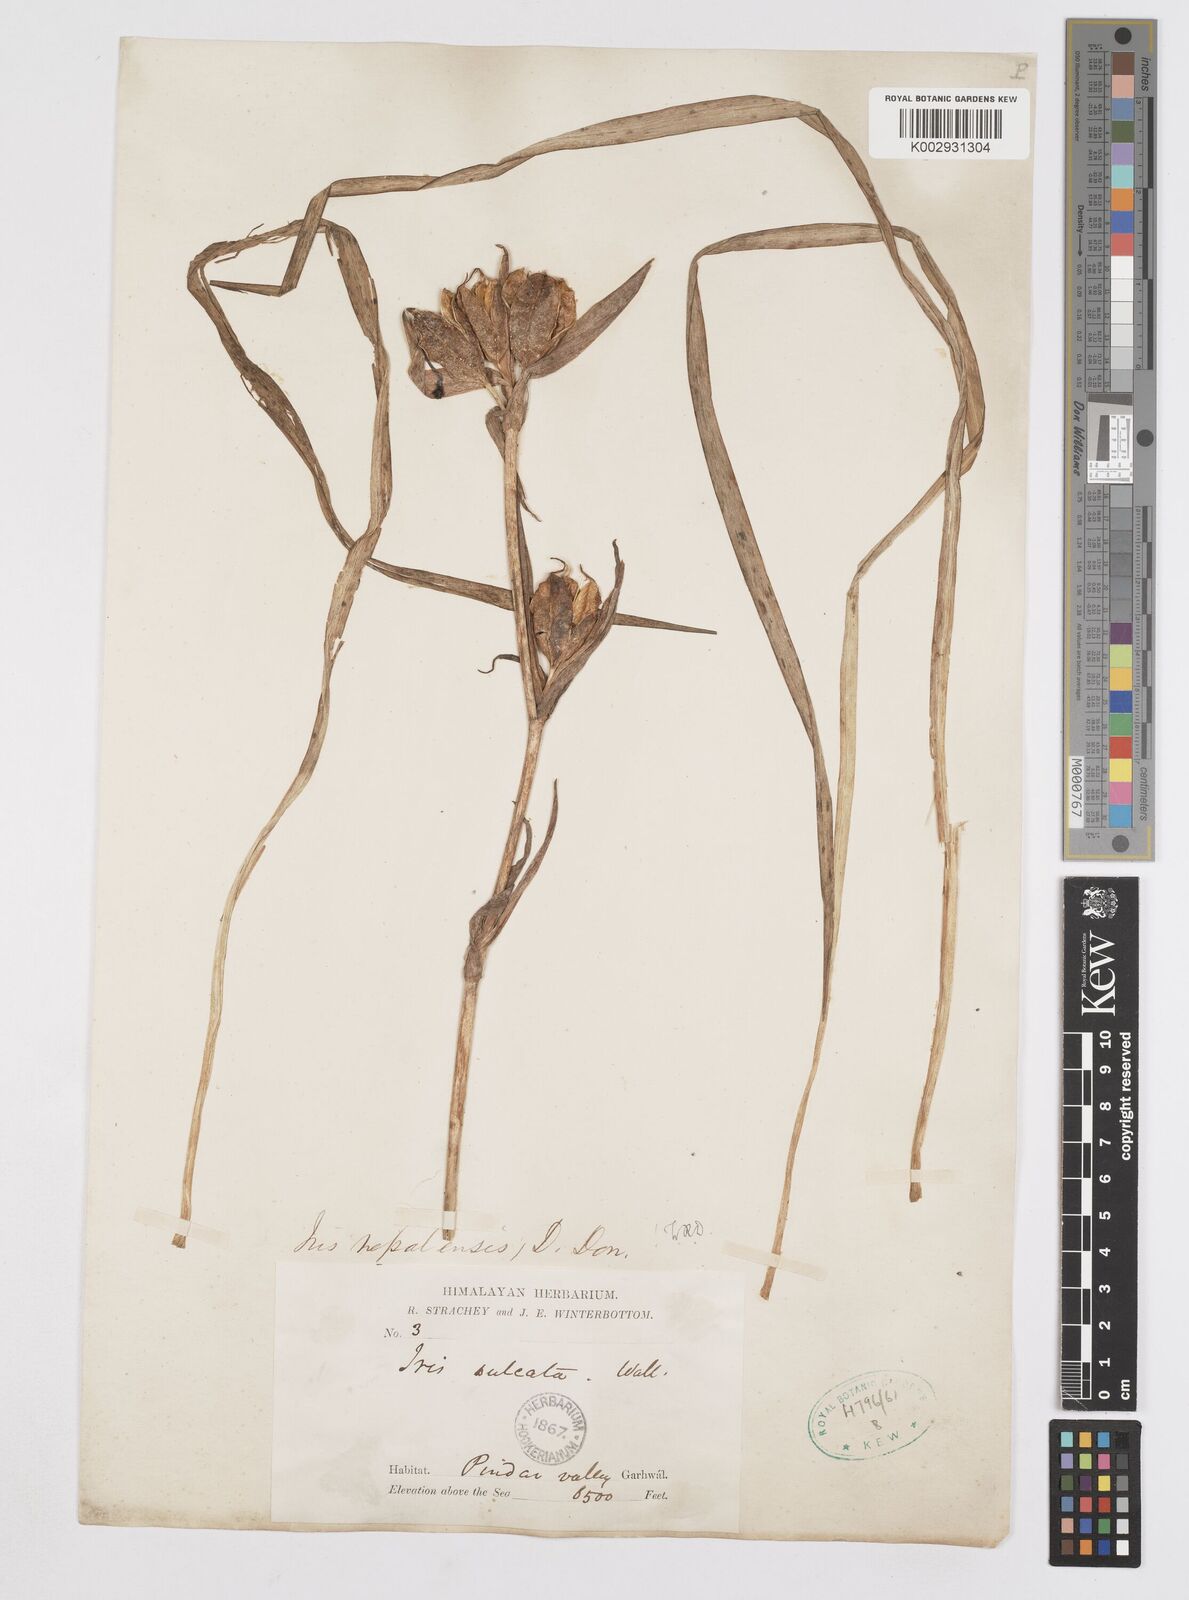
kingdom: Plantae
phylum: Tracheophyta
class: Liliopsida
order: Asparagales
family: Iridaceae
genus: Iris
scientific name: Iris decora
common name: Nepal iris
